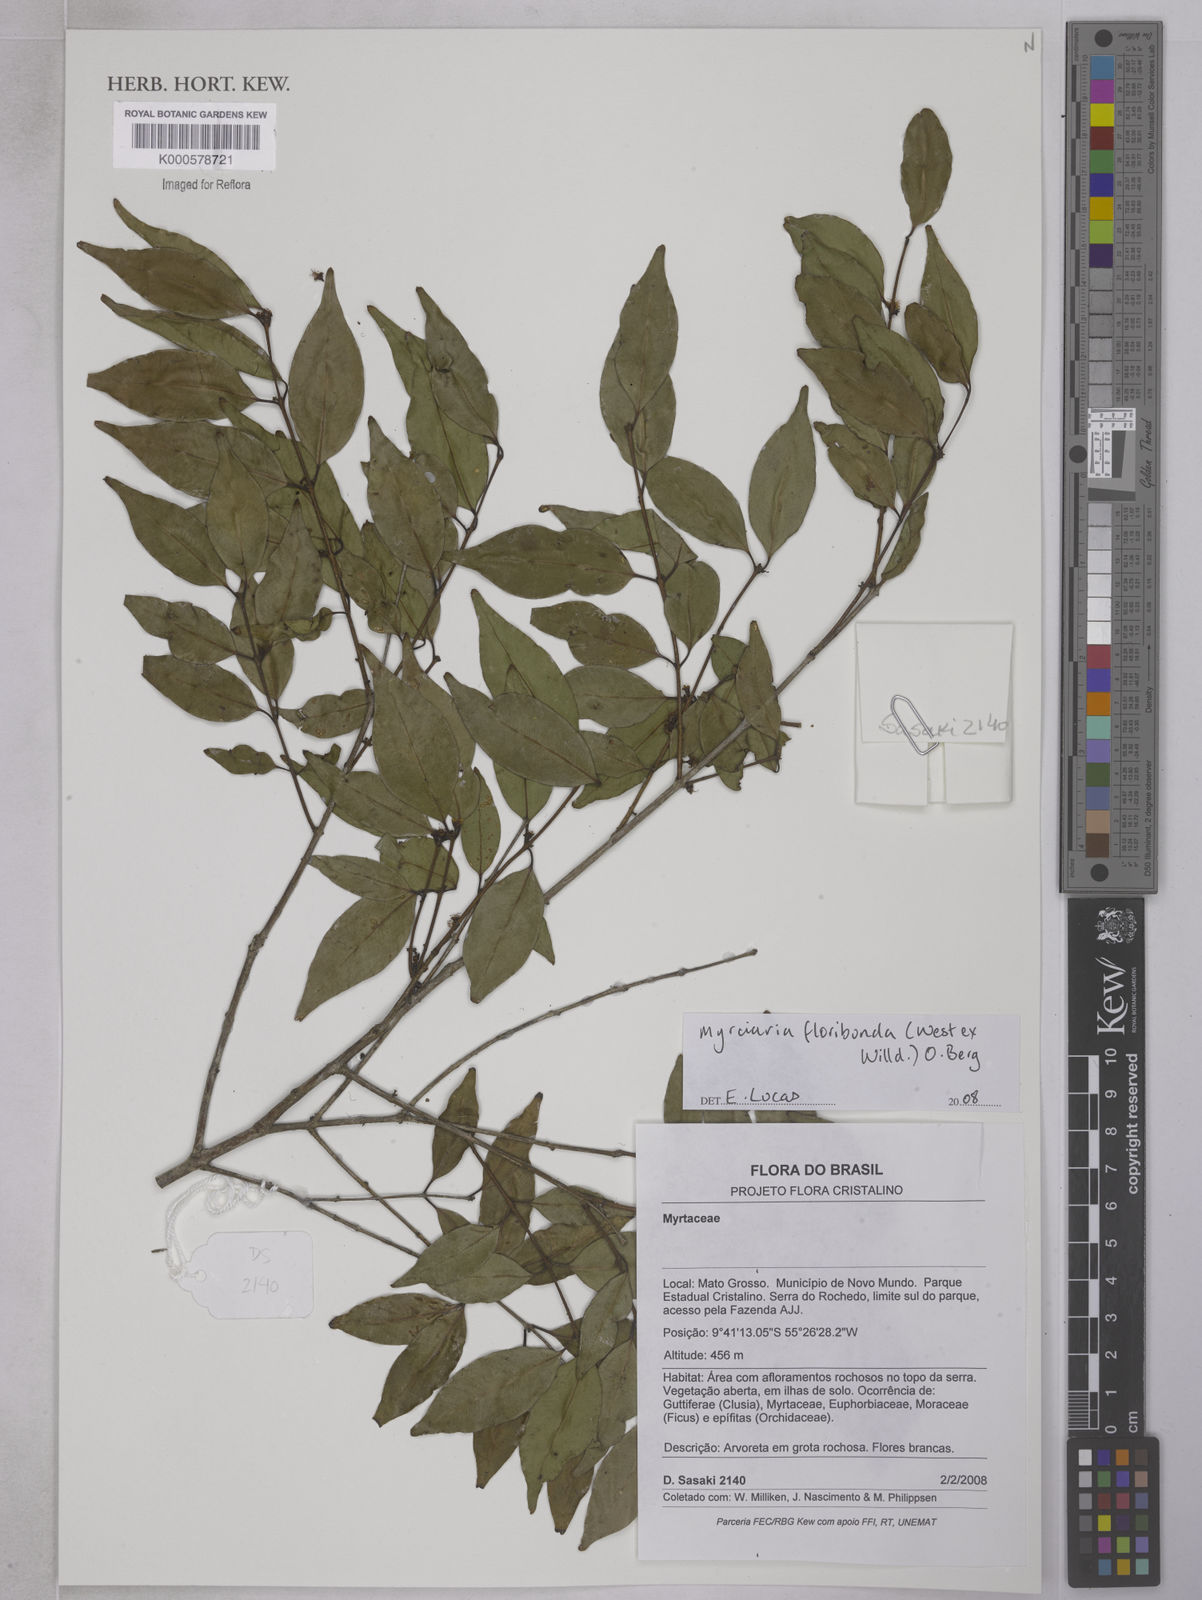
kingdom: Plantae
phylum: Tracheophyta
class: Magnoliopsida
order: Myrtales
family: Myrtaceae
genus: Myrciaria
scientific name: Myrciaria floribunda
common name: Guavaberry
